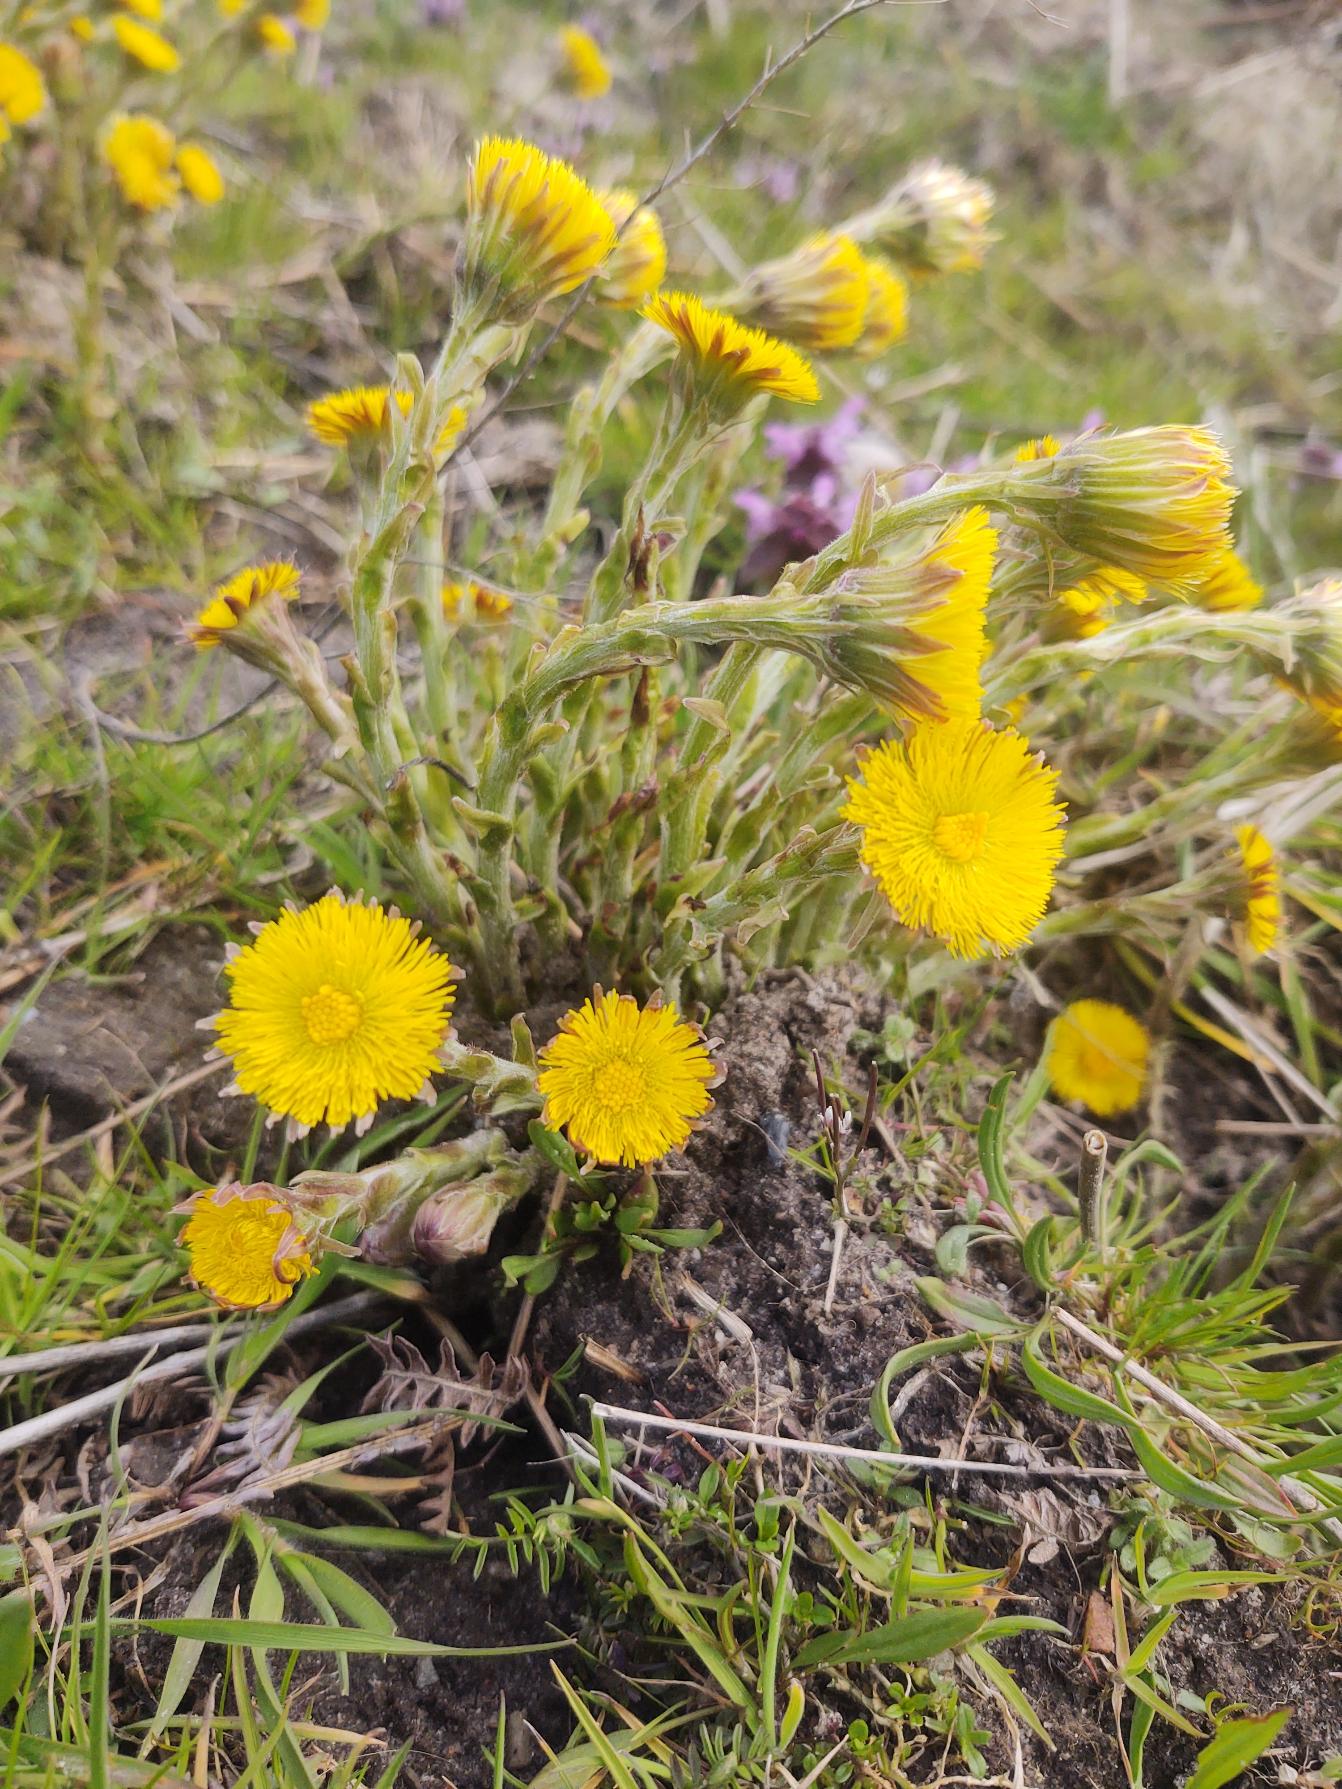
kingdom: Plantae
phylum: Tracheophyta
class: Magnoliopsida
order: Asterales
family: Asteraceae
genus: Tussilago
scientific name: Tussilago farfara
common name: Følfod
